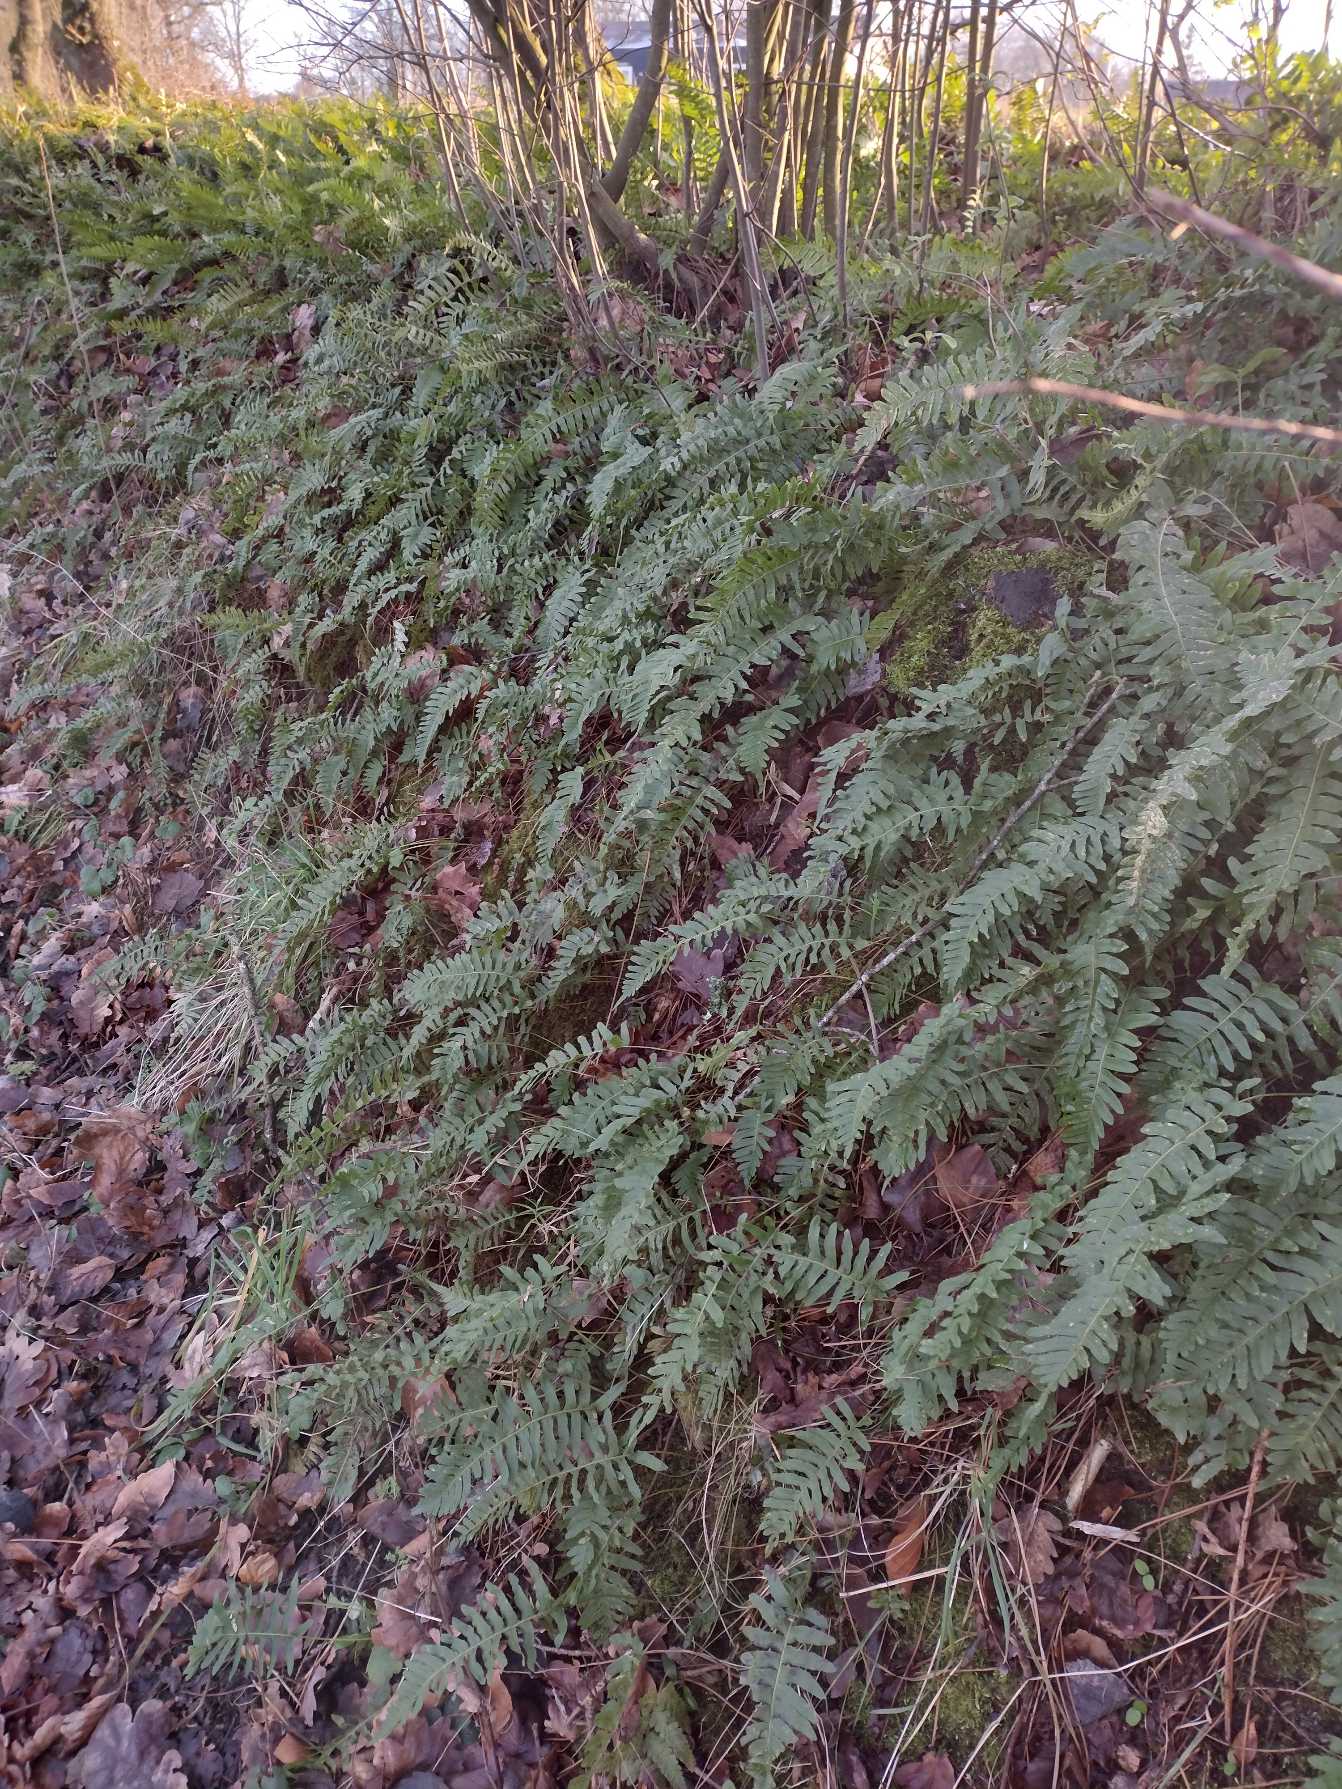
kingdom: Plantae
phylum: Tracheophyta
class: Polypodiopsida
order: Polypodiales
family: Polypodiaceae
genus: Polypodium
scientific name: Polypodium vulgare
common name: Almindelig engelsød
